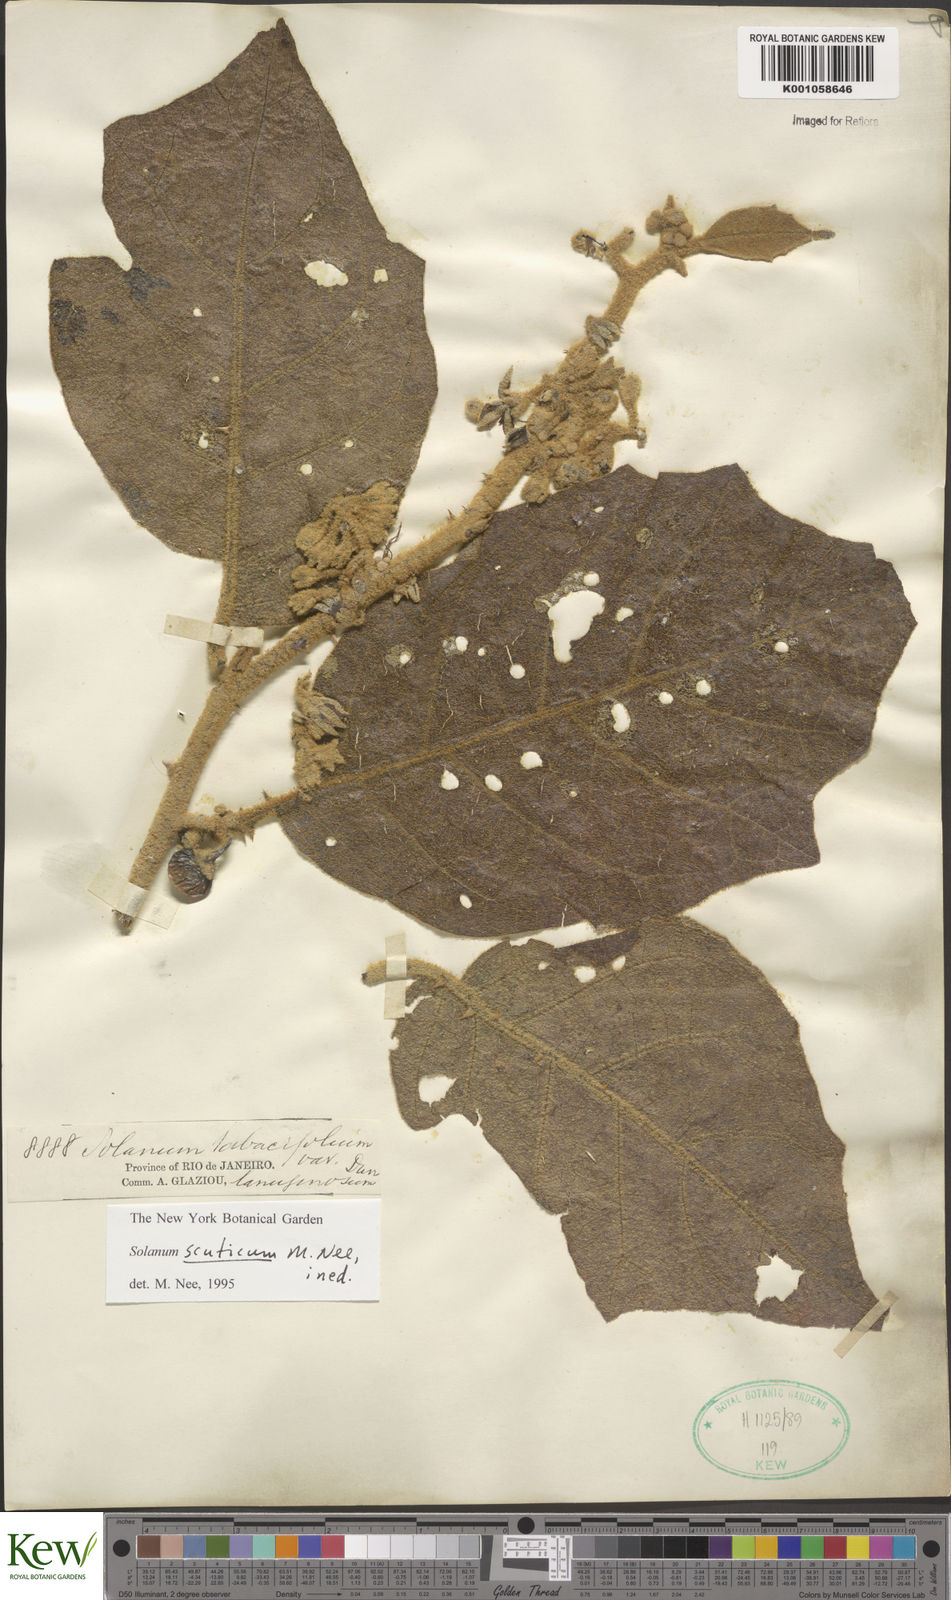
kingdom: Plantae
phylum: Tracheophyta
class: Magnoliopsida
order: Solanales
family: Solanaceae
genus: Solanum
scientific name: Solanum scuticum
